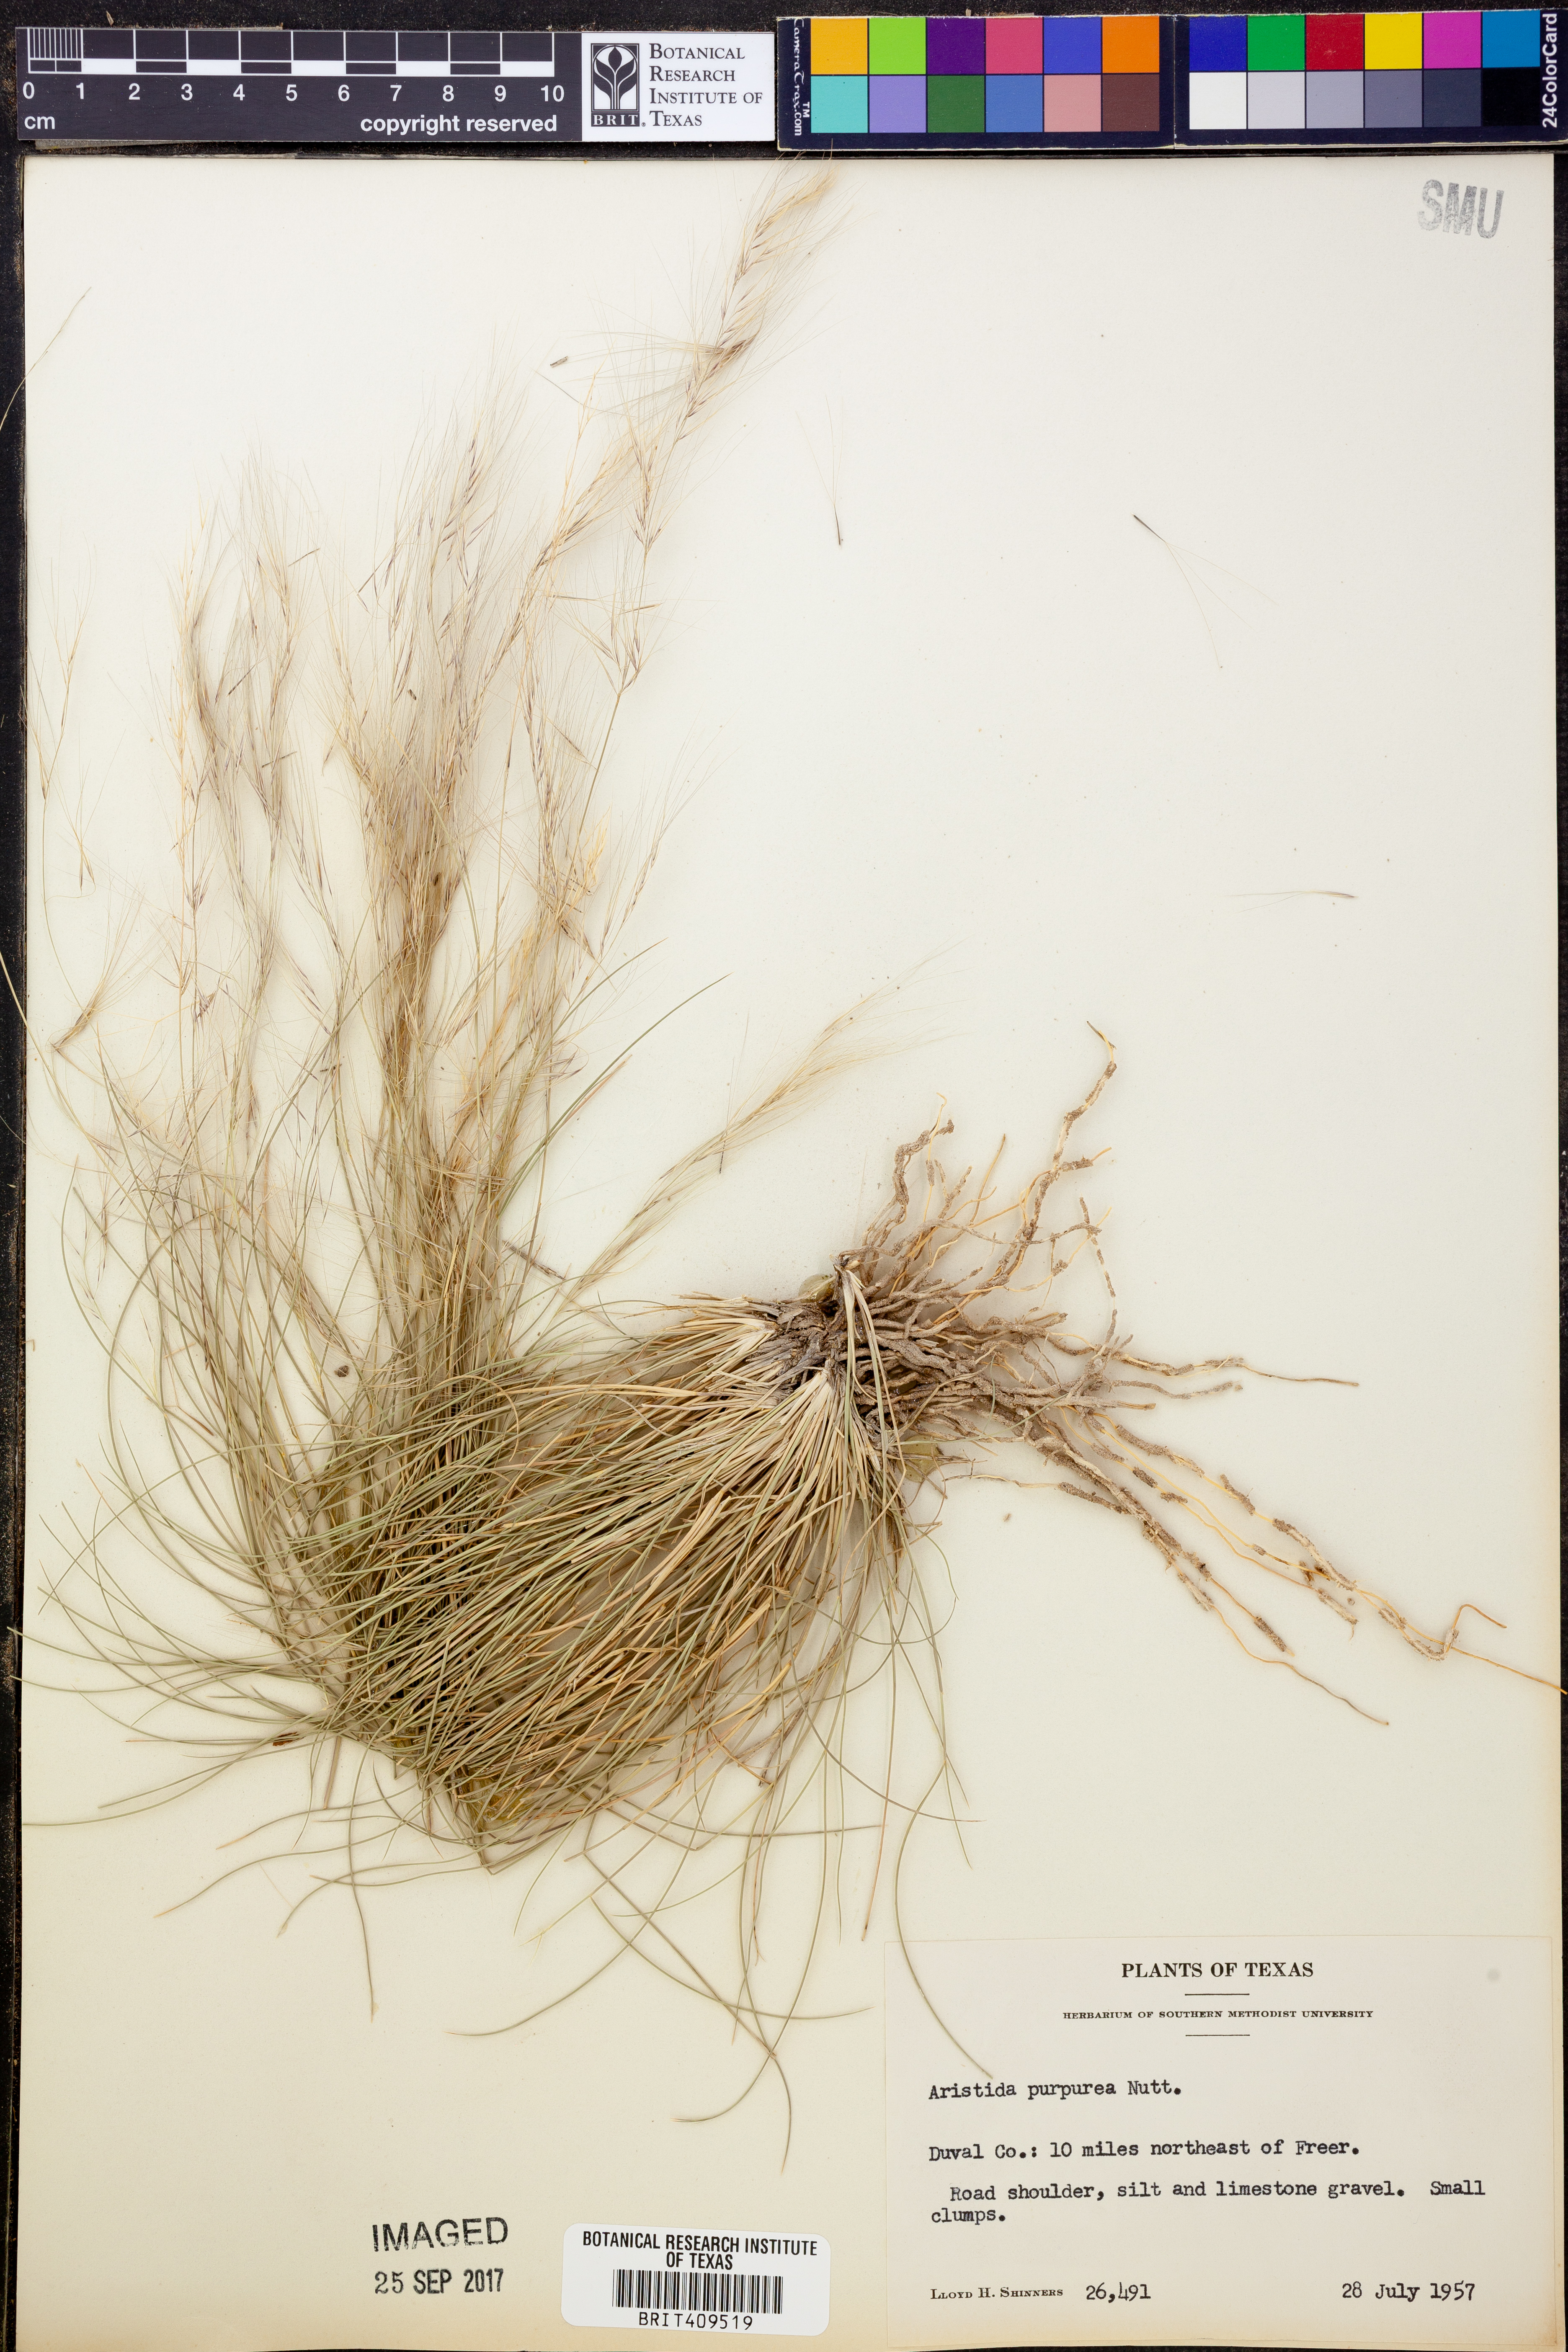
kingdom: Plantae
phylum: Tracheophyta
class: Liliopsida
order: Poales
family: Poaceae
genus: Aristida
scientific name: Aristida purpurea
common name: Purple threeawn
